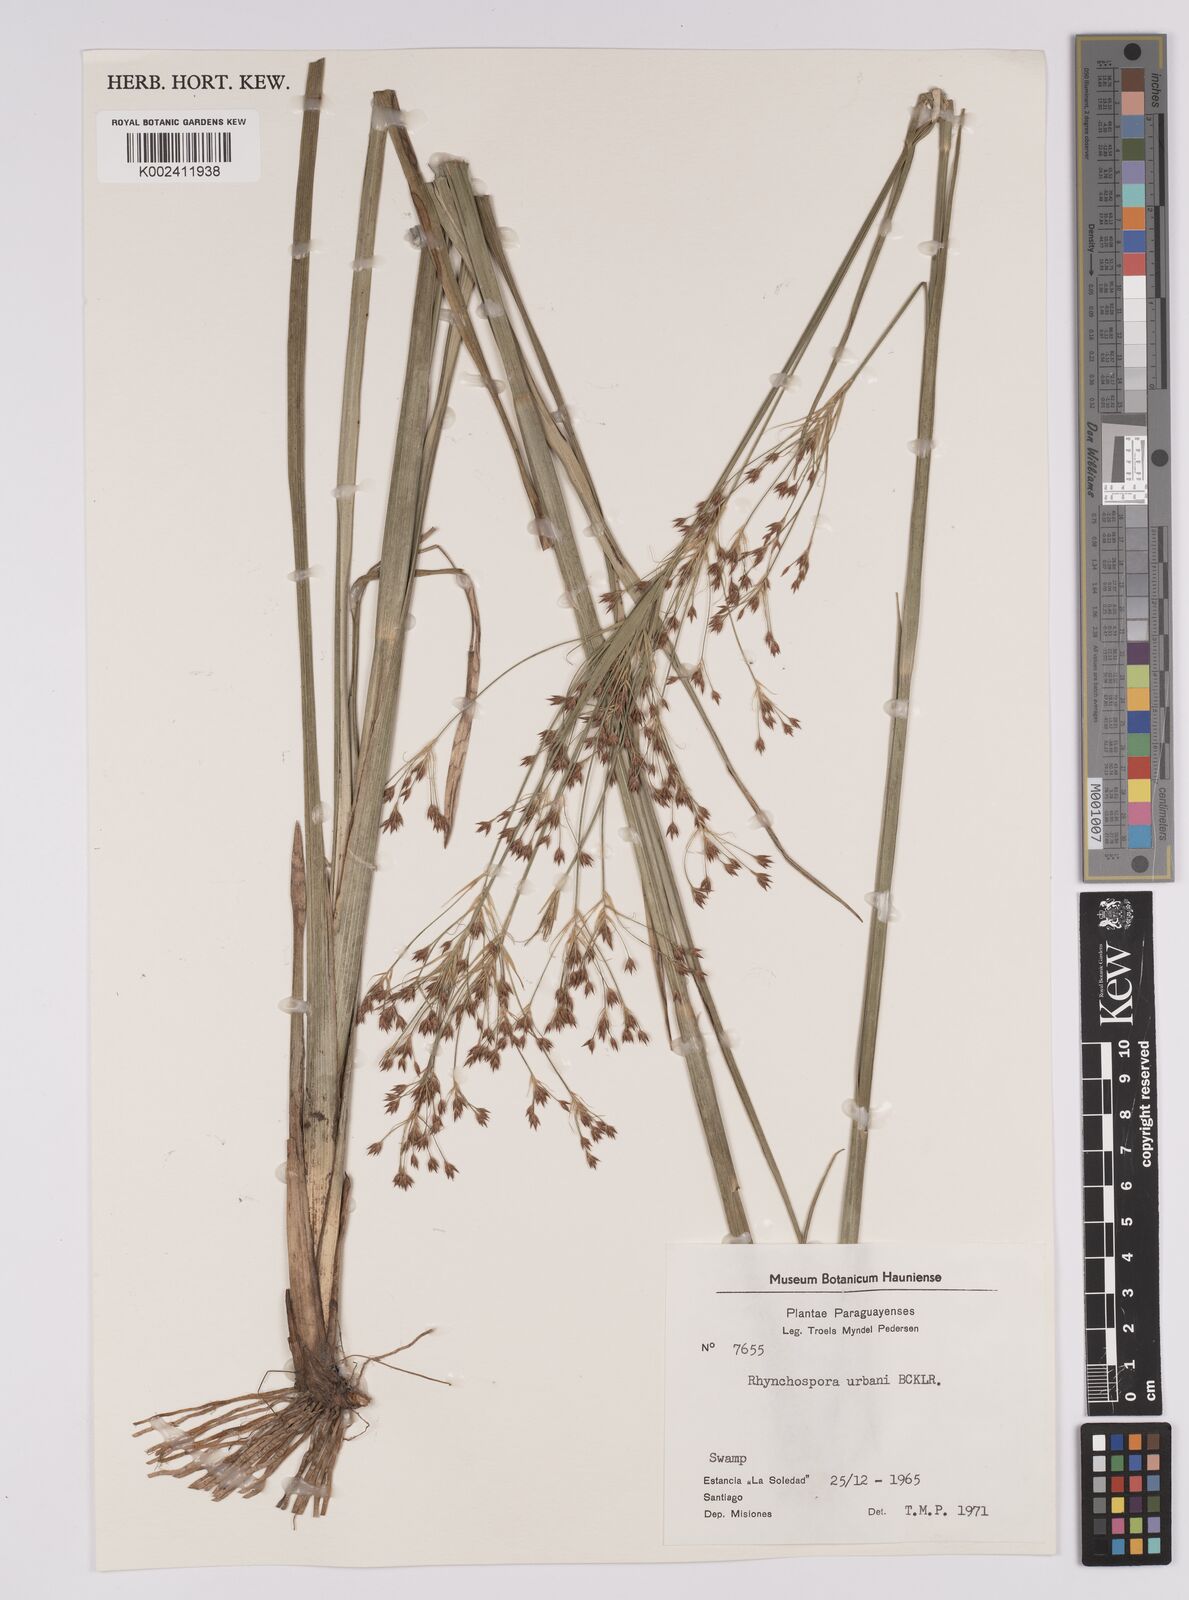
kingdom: Plantae
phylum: Tracheophyta
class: Liliopsida
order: Poales
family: Cyperaceae
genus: Rhynchospora
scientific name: Rhynchospora urbanii
